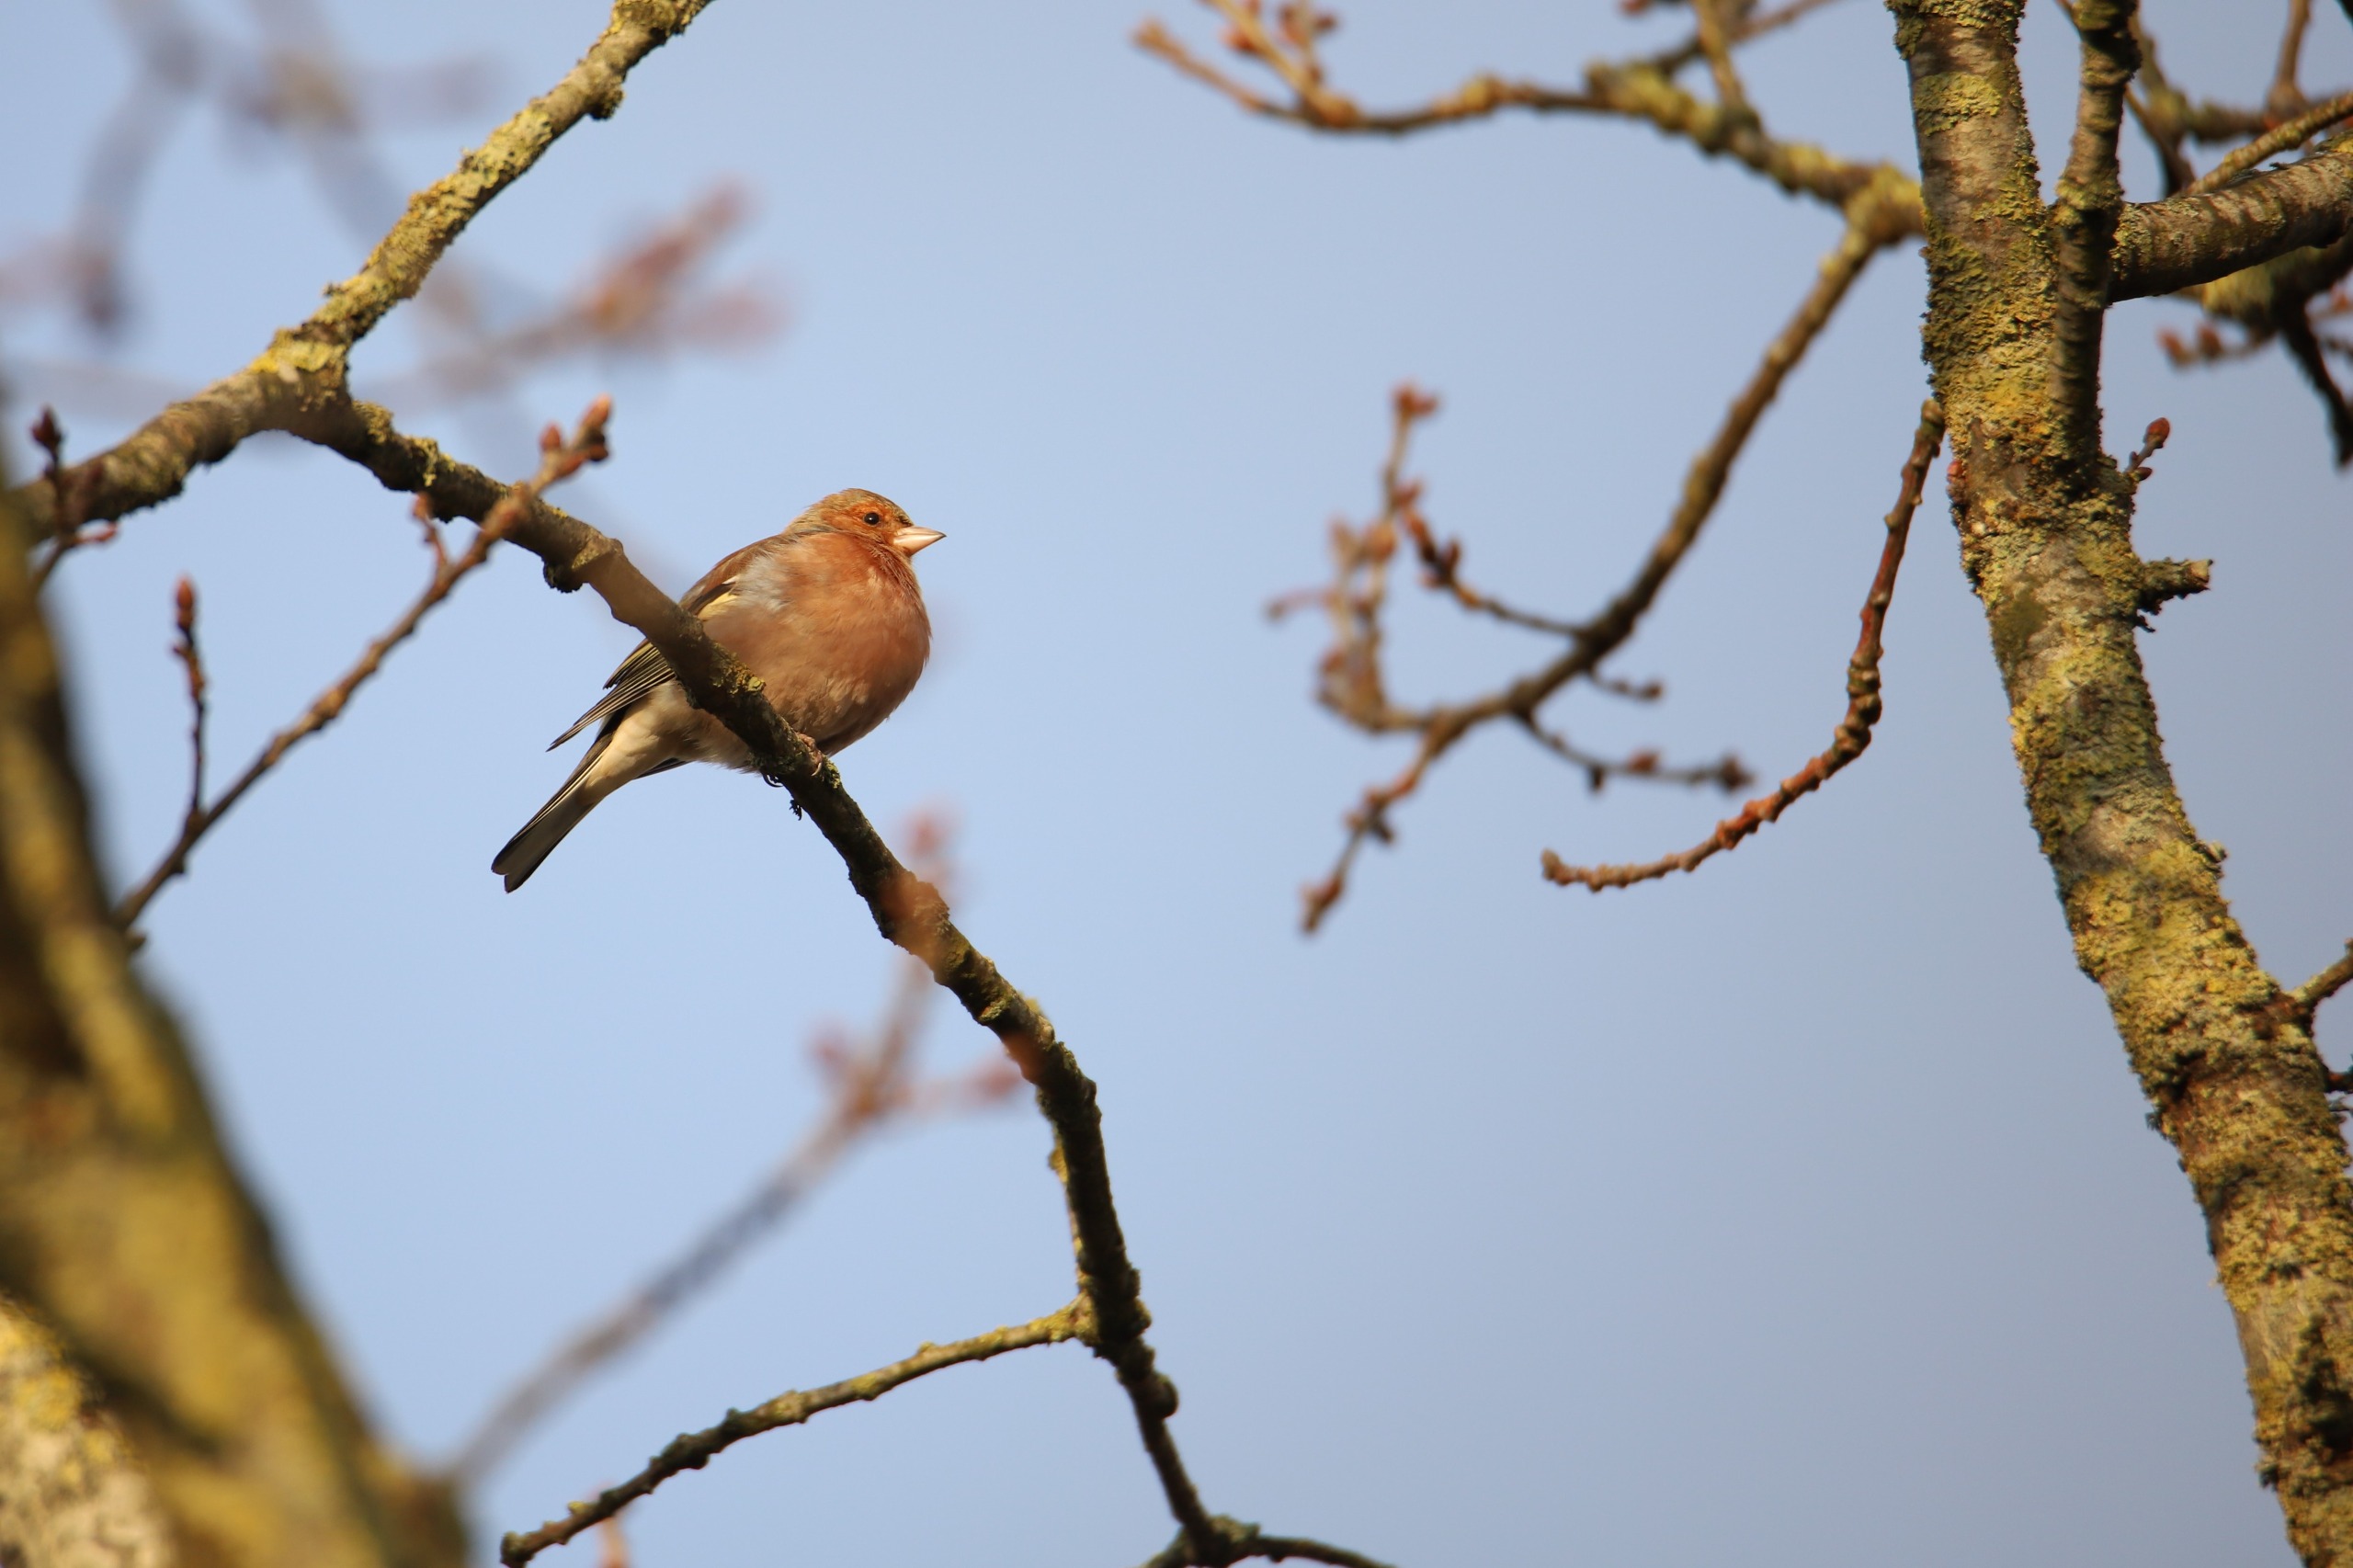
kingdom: Animalia
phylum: Chordata
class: Aves
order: Passeriformes
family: Fringillidae
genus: Fringilla
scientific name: Fringilla coelebs
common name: Bogfinke
